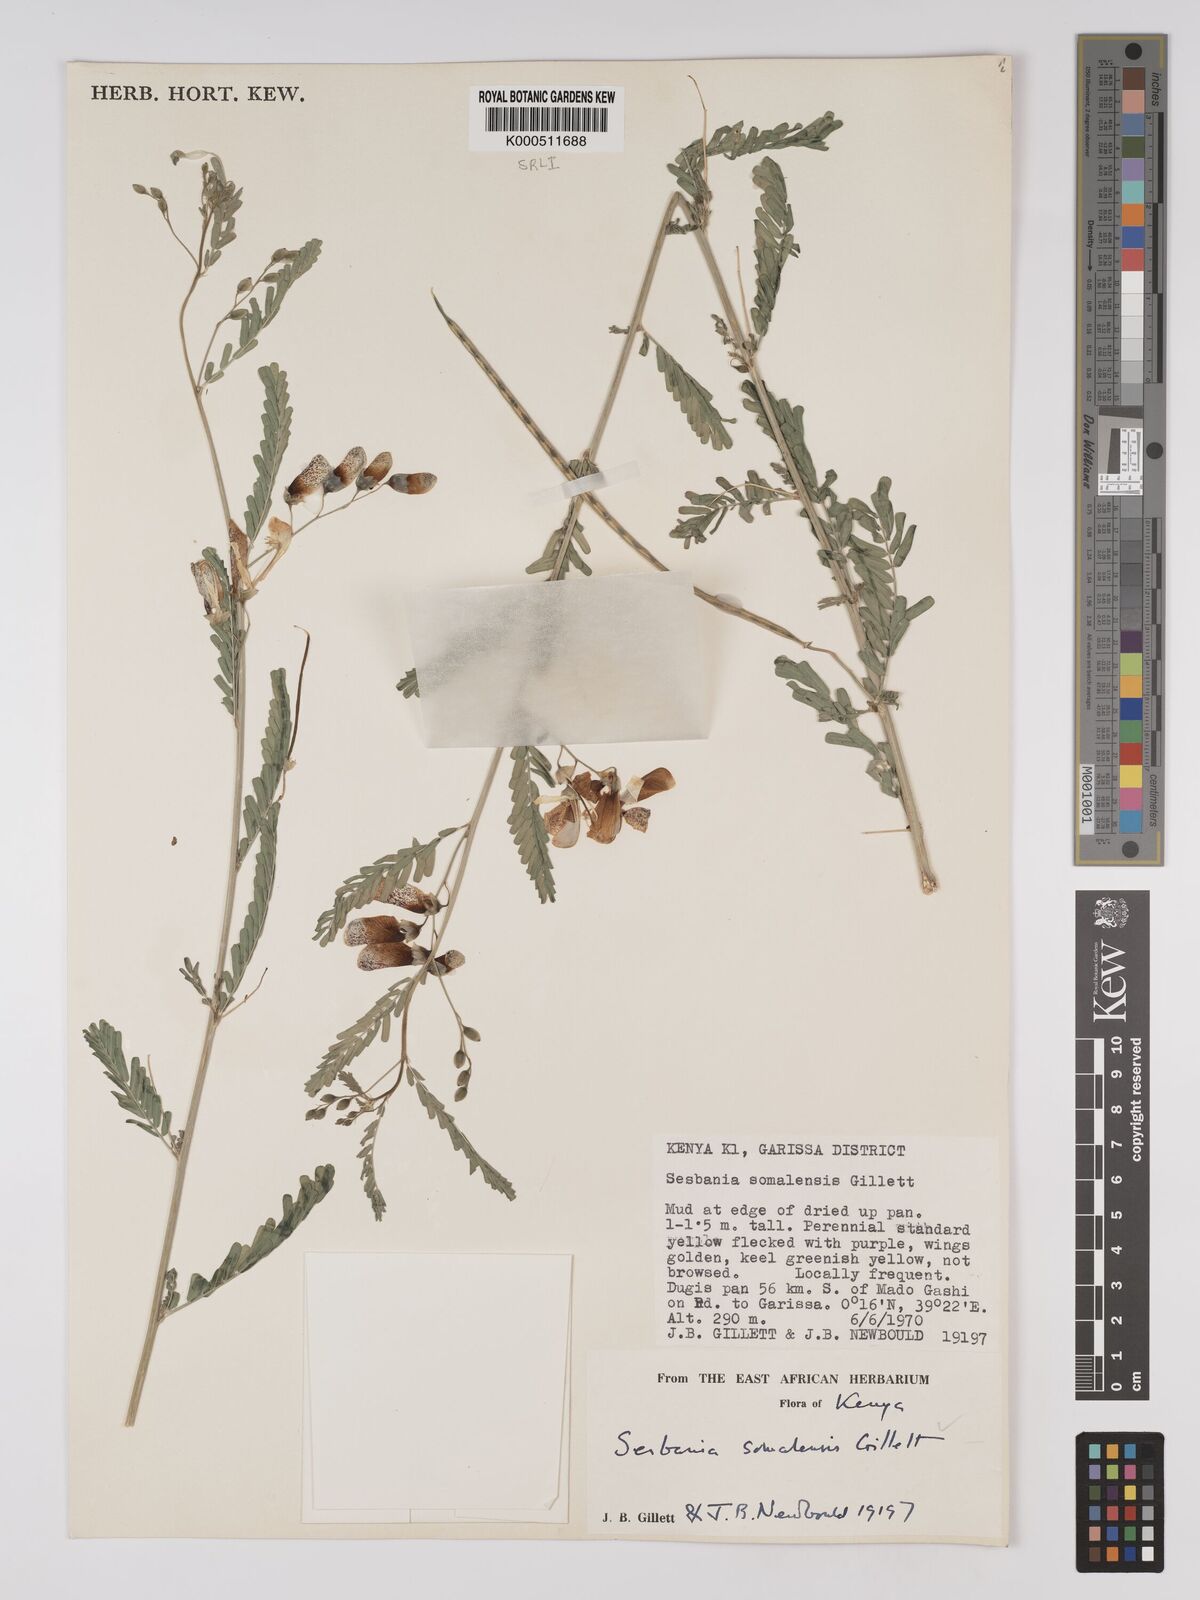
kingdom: Plantae
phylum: Tracheophyta
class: Magnoliopsida
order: Fabales
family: Fabaceae
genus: Sesbania
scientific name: Sesbania somalensis
